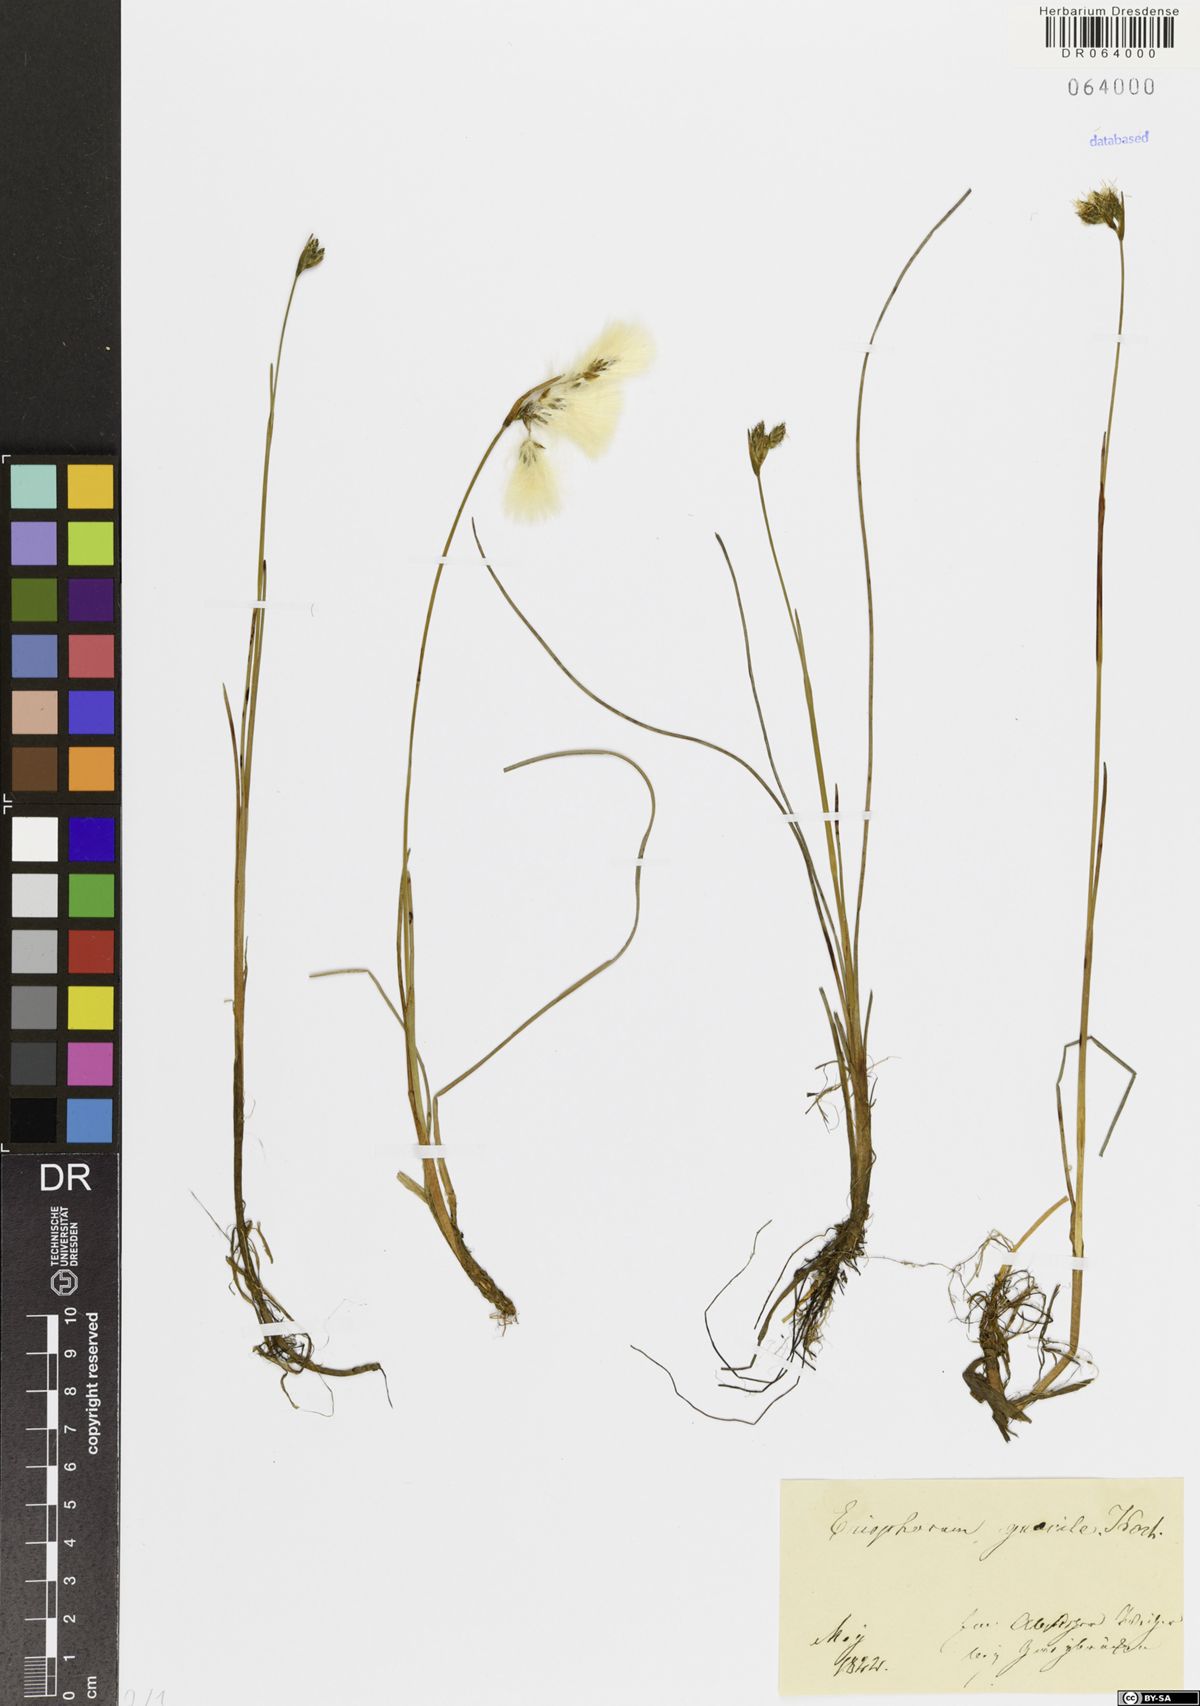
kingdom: Plantae
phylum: Tracheophyta
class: Liliopsida
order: Poales
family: Cyperaceae
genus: Eriophorum
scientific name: Eriophorum gracile
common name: Slender cottongrass
